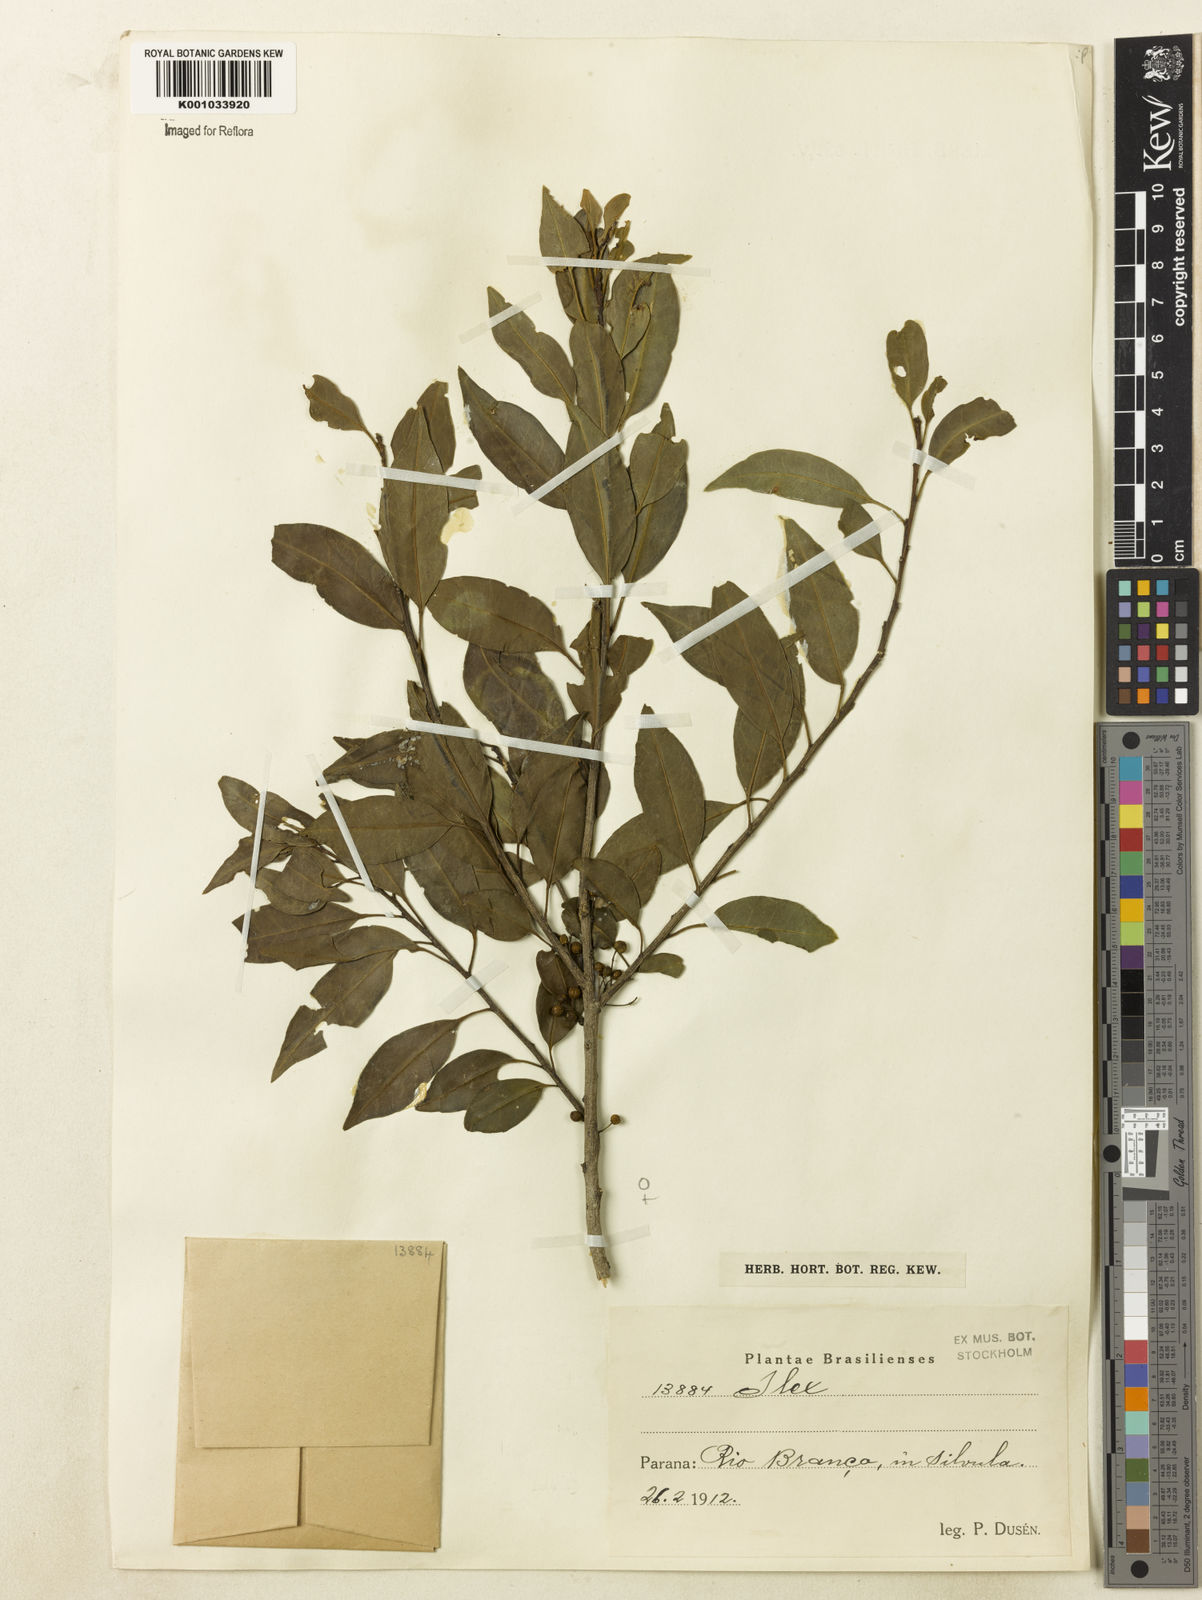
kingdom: Plantae
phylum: Tracheophyta
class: Magnoliopsida
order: Aquifoliales
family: Aquifoliaceae
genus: Ilex
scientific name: Ilex brevicuspis
